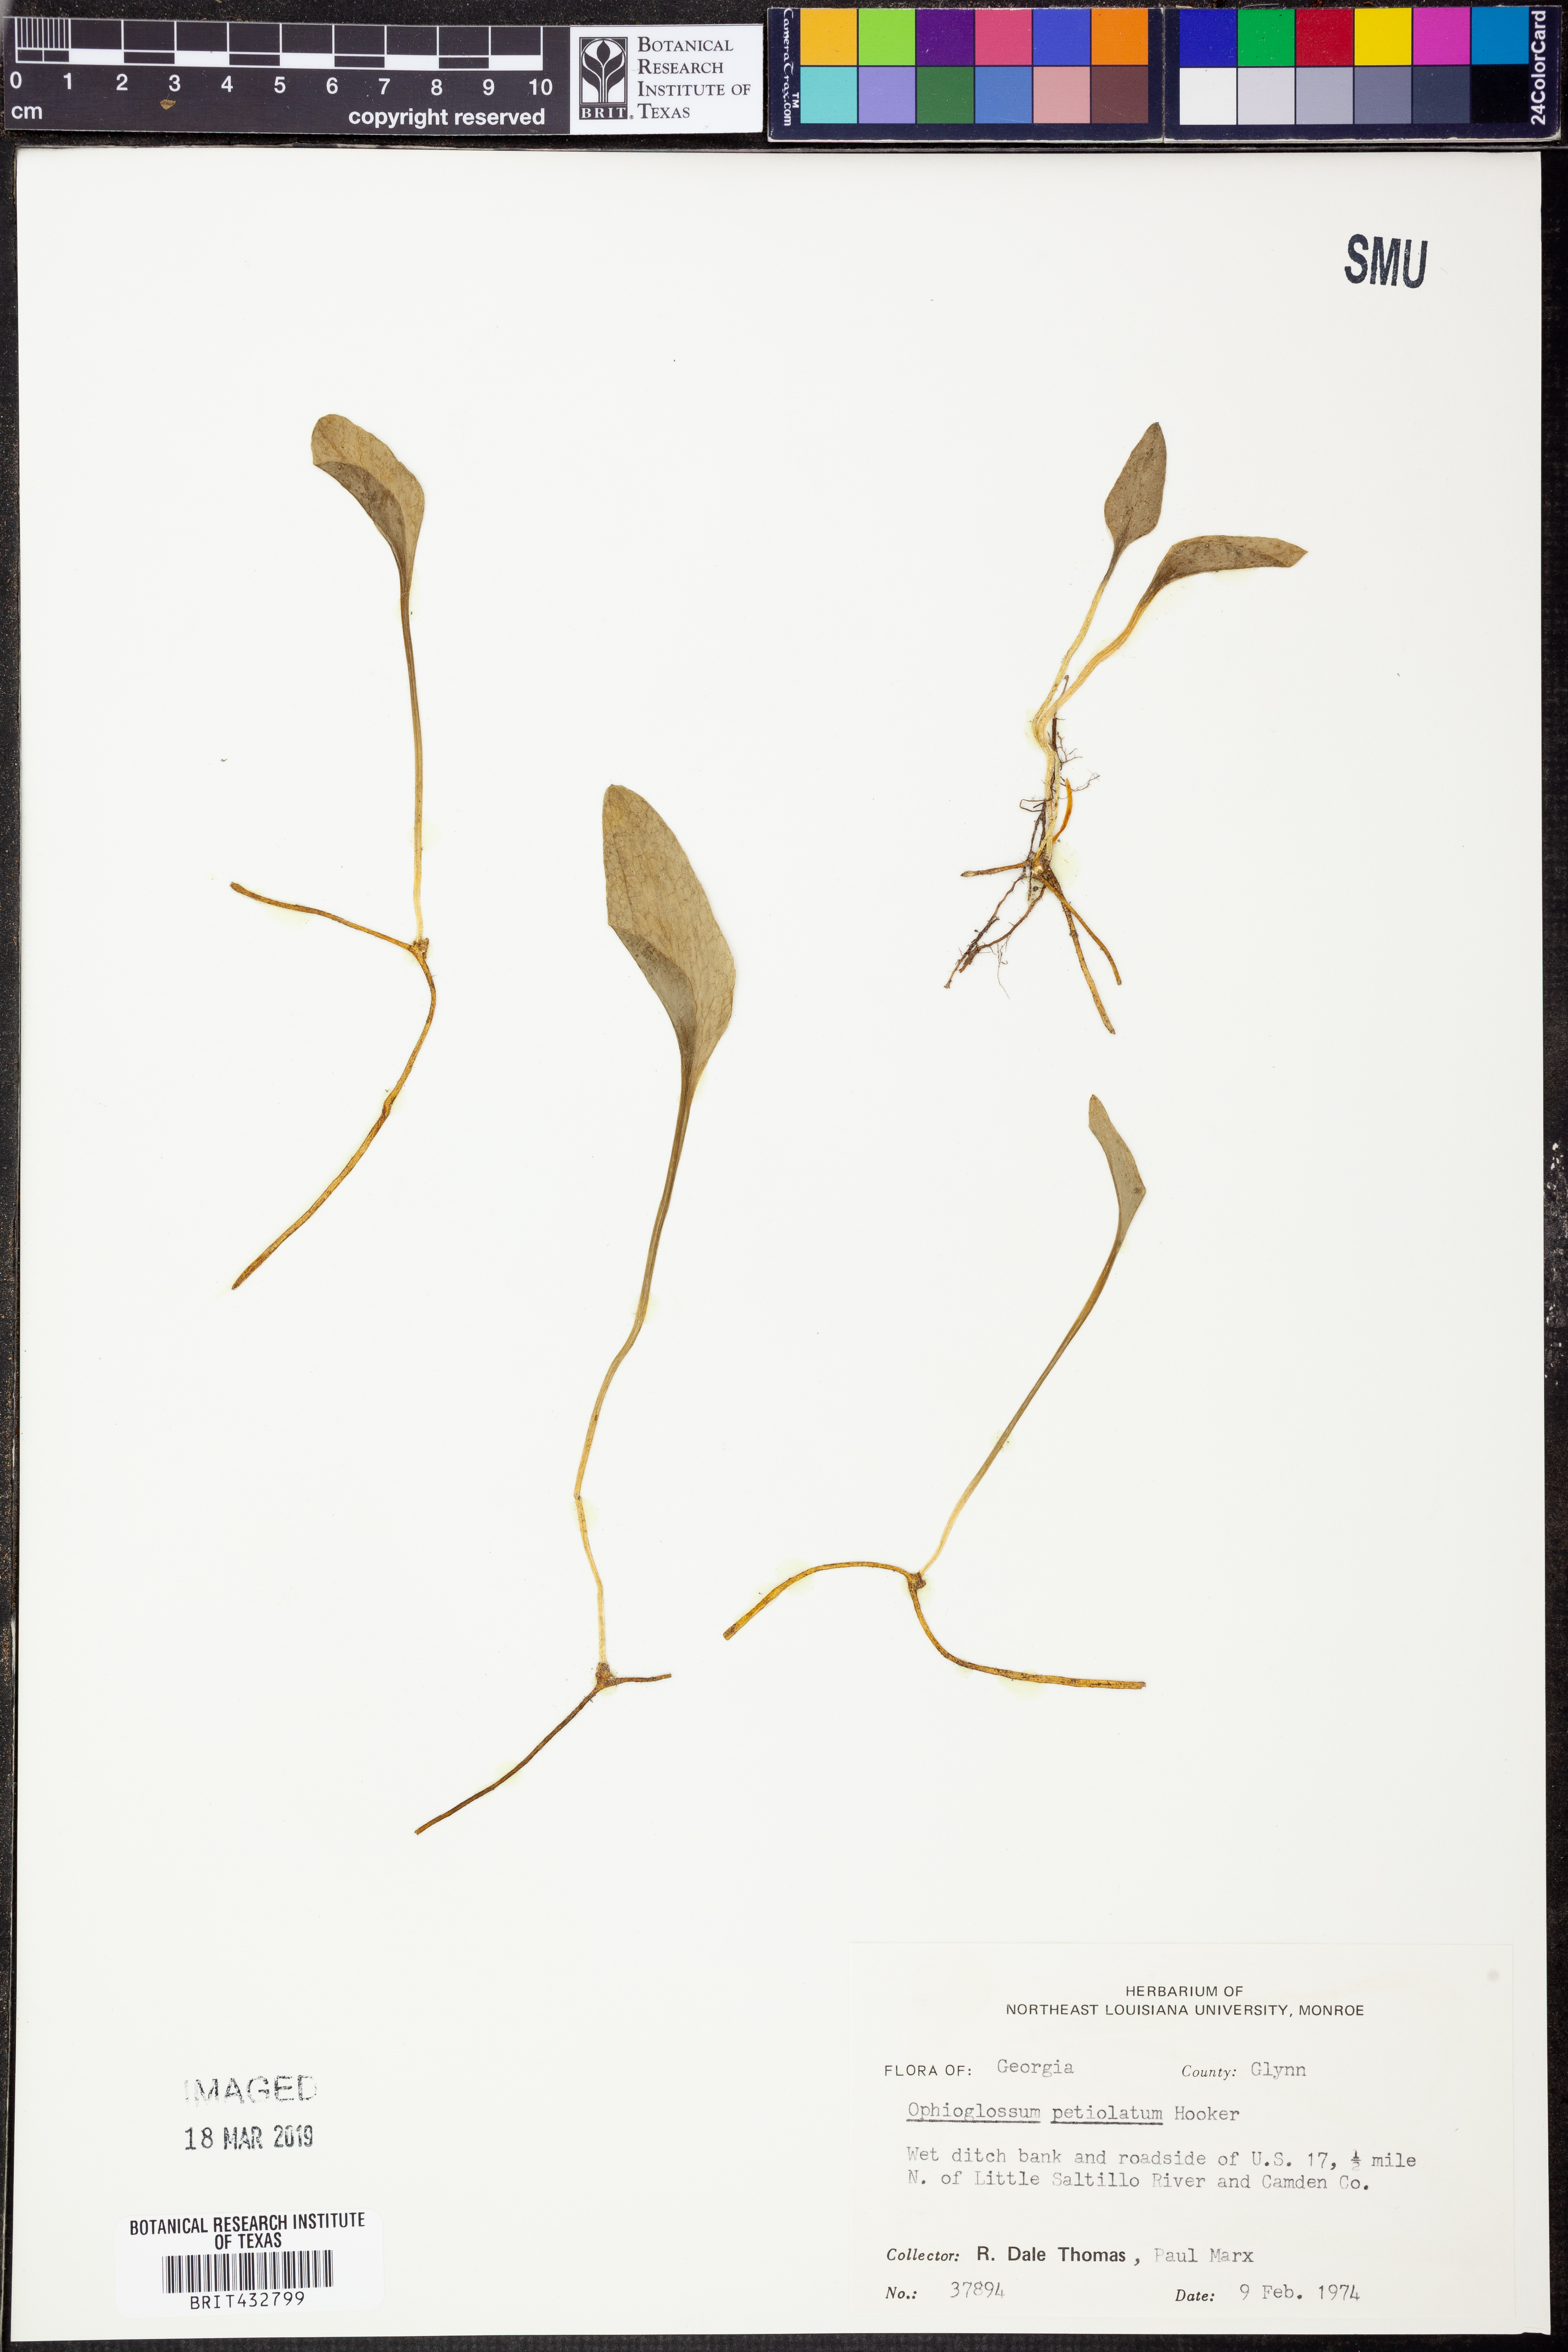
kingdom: Plantae
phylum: Tracheophyta
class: Polypodiopsida
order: Ophioglossales
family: Ophioglossaceae
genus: Ophioglossum
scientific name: Ophioglossum petiolatum
